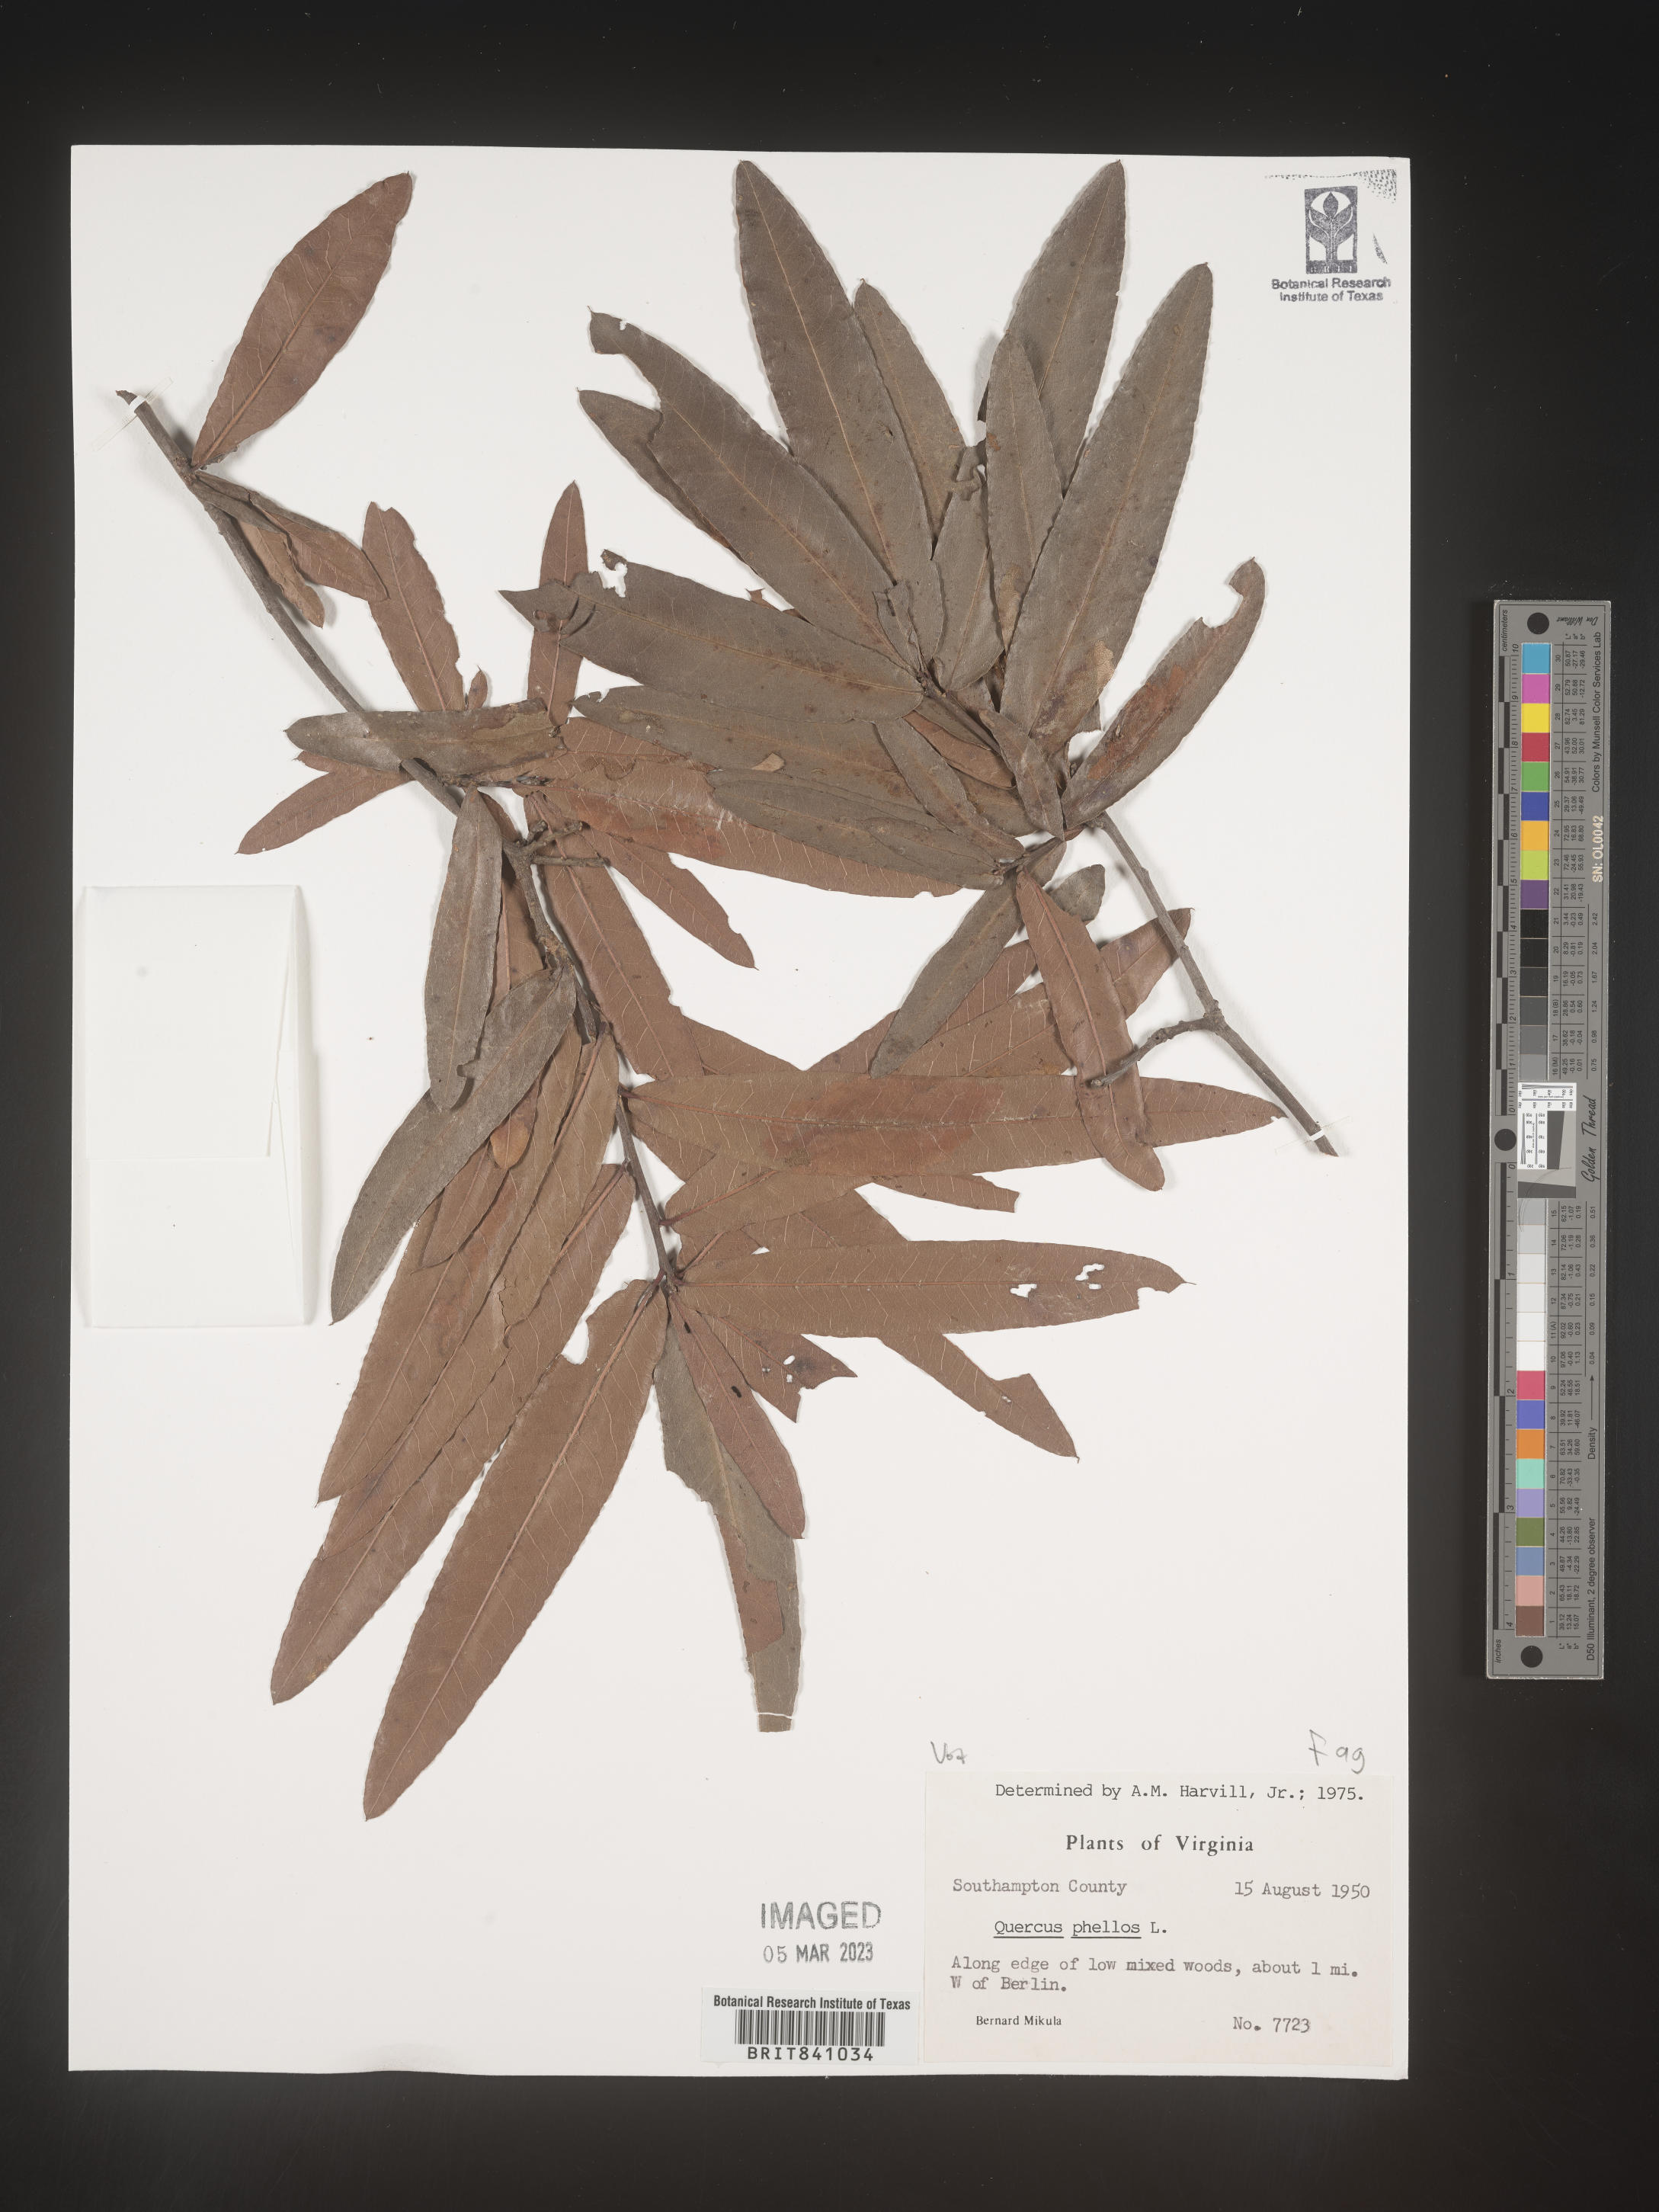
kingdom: Plantae
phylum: Tracheophyta
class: Magnoliopsida
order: Fagales
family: Fagaceae
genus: Quercus
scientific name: Quercus phellos
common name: Willow oak
